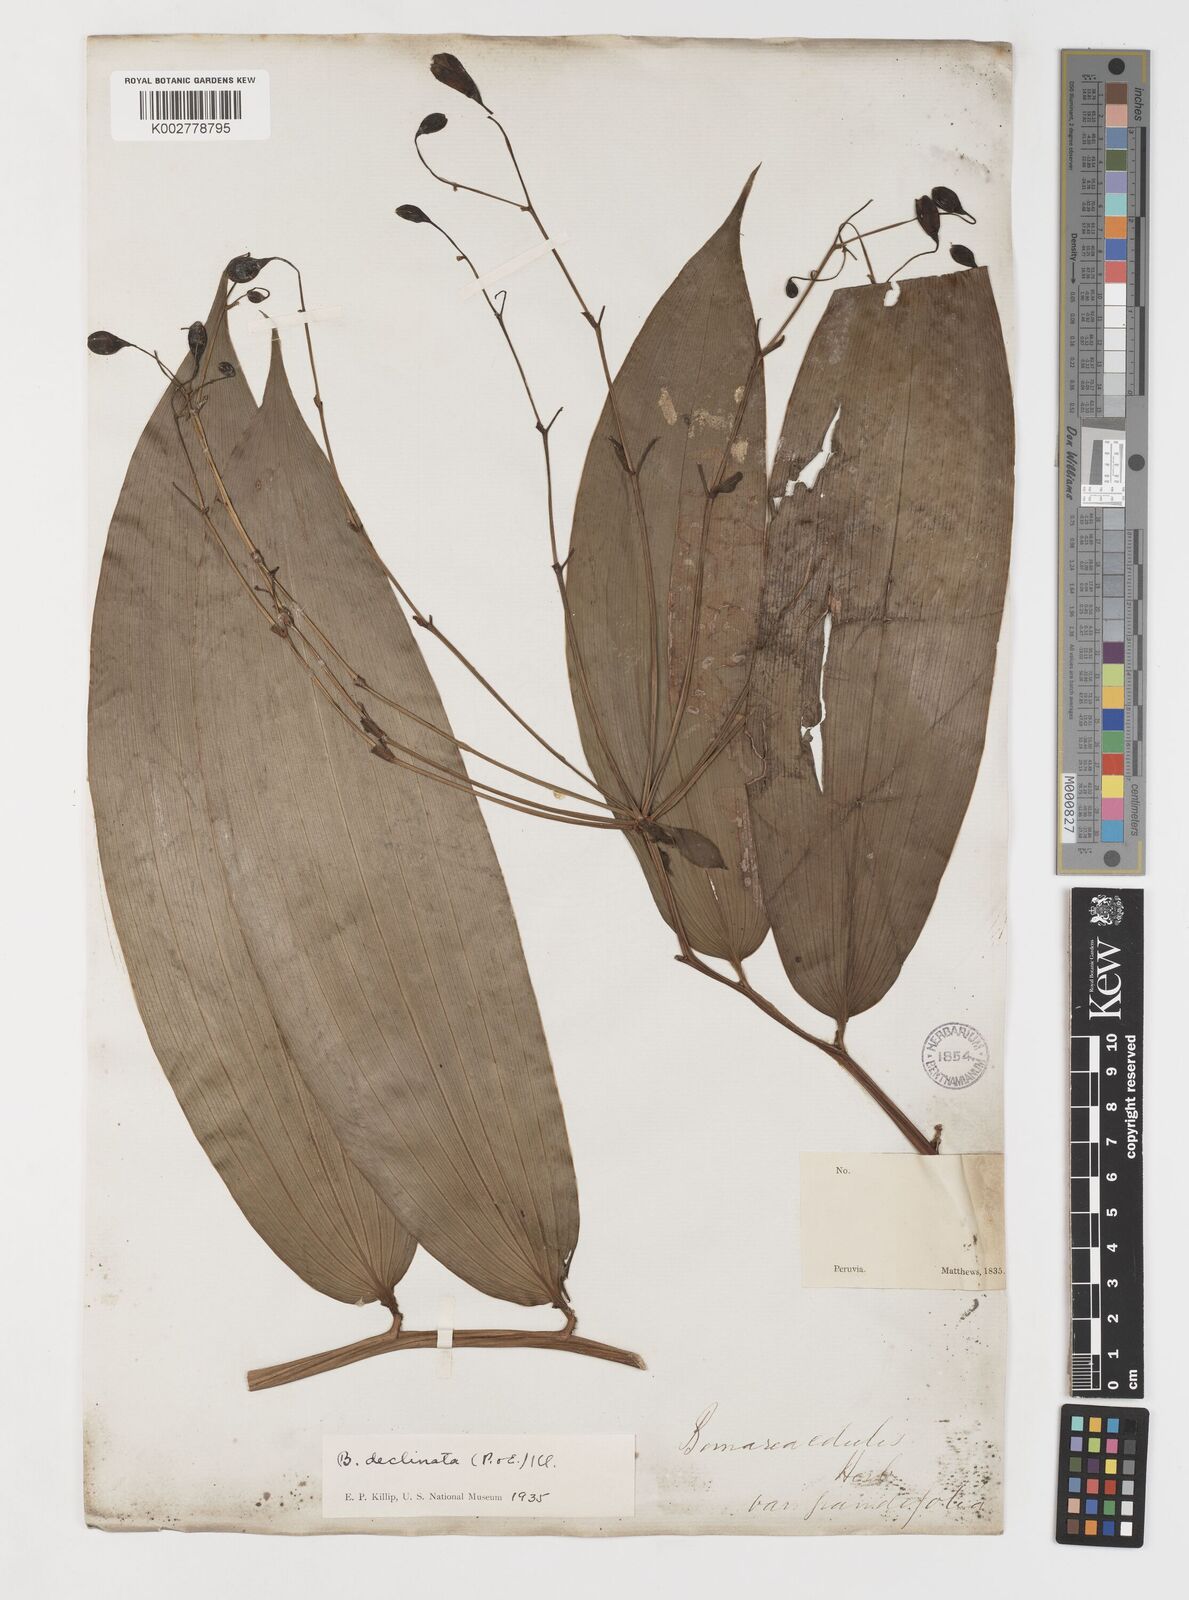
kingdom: Plantae
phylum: Tracheophyta
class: Liliopsida
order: Liliales
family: Alstroemeriaceae
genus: Bomarea
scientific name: Bomarea dispar
